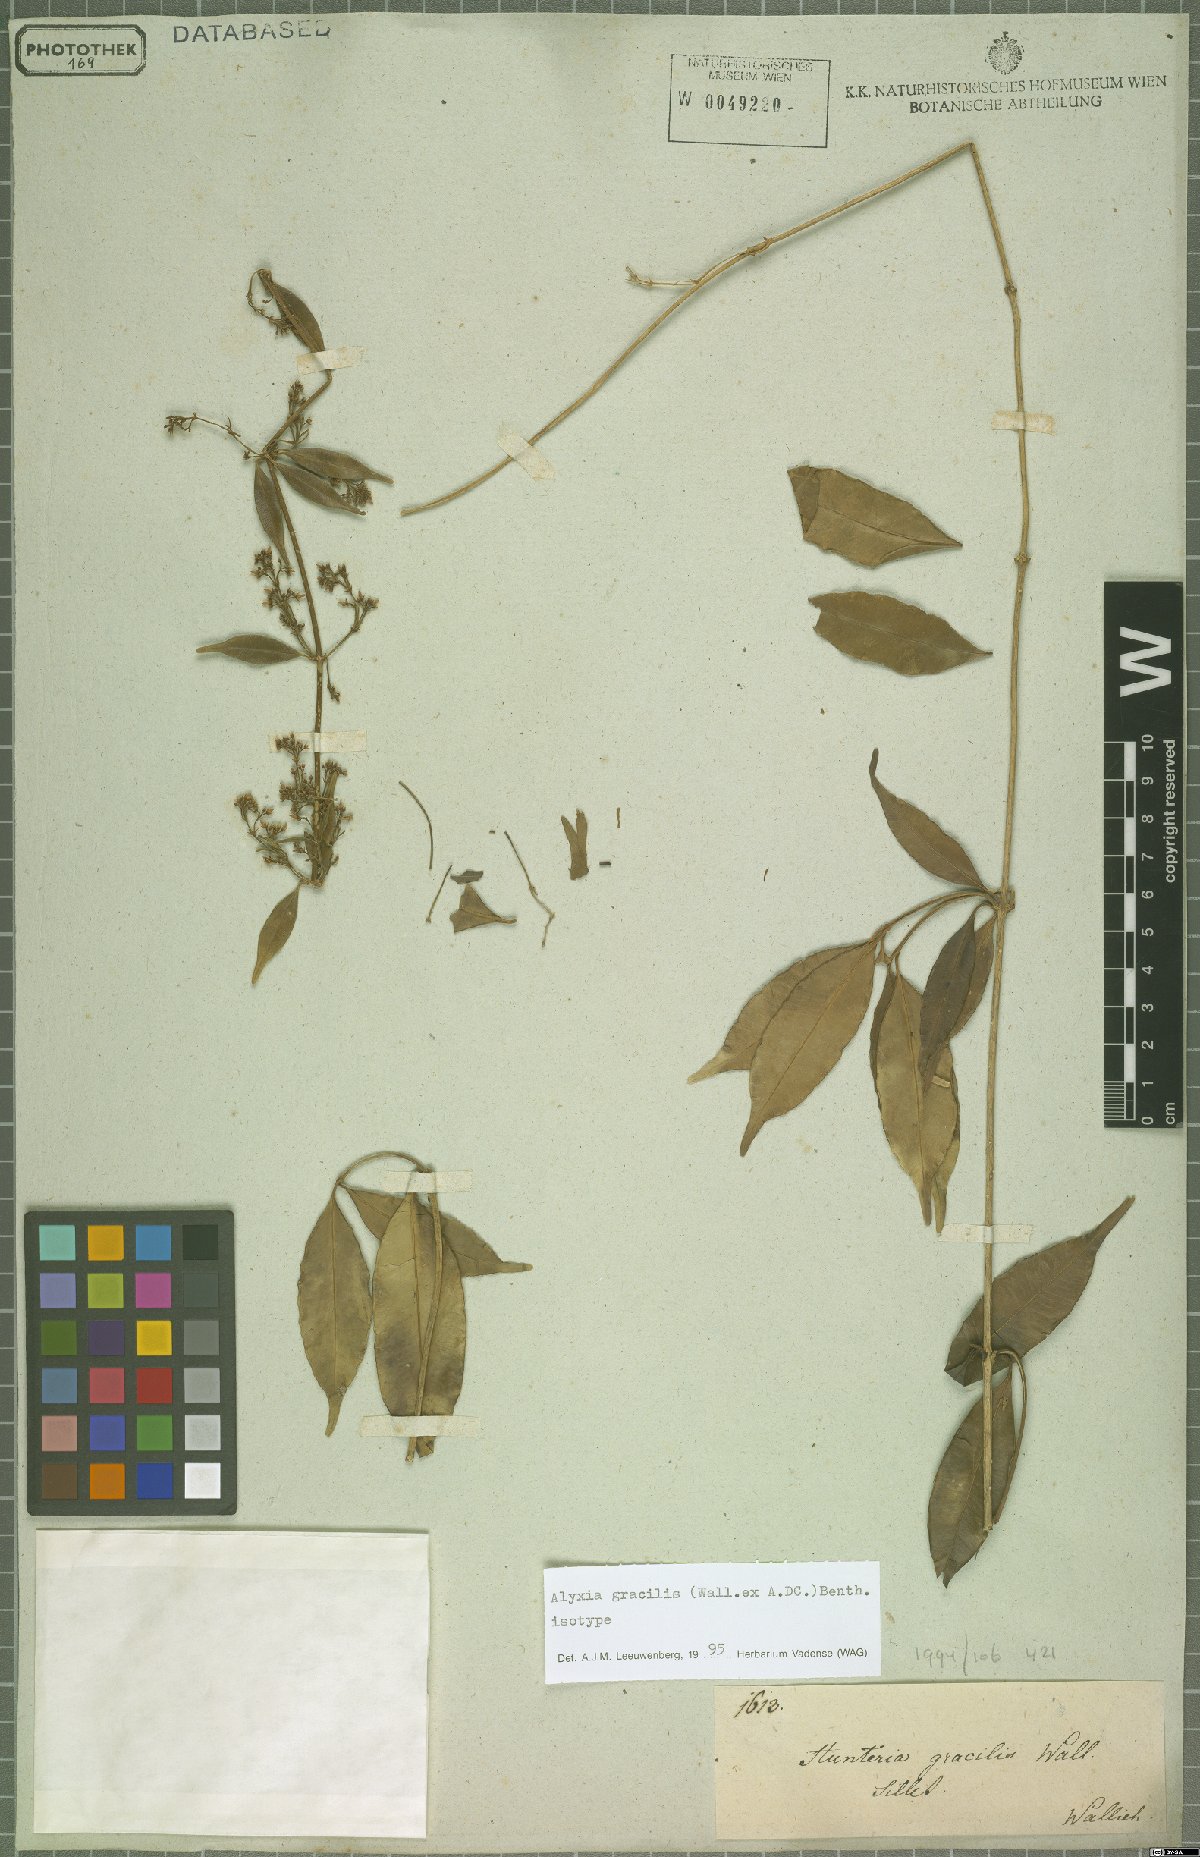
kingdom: Plantae
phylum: Tracheophyta
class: Magnoliopsida
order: Gentianales
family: Apocynaceae
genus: Alyxia
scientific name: Alyxia gracilis
